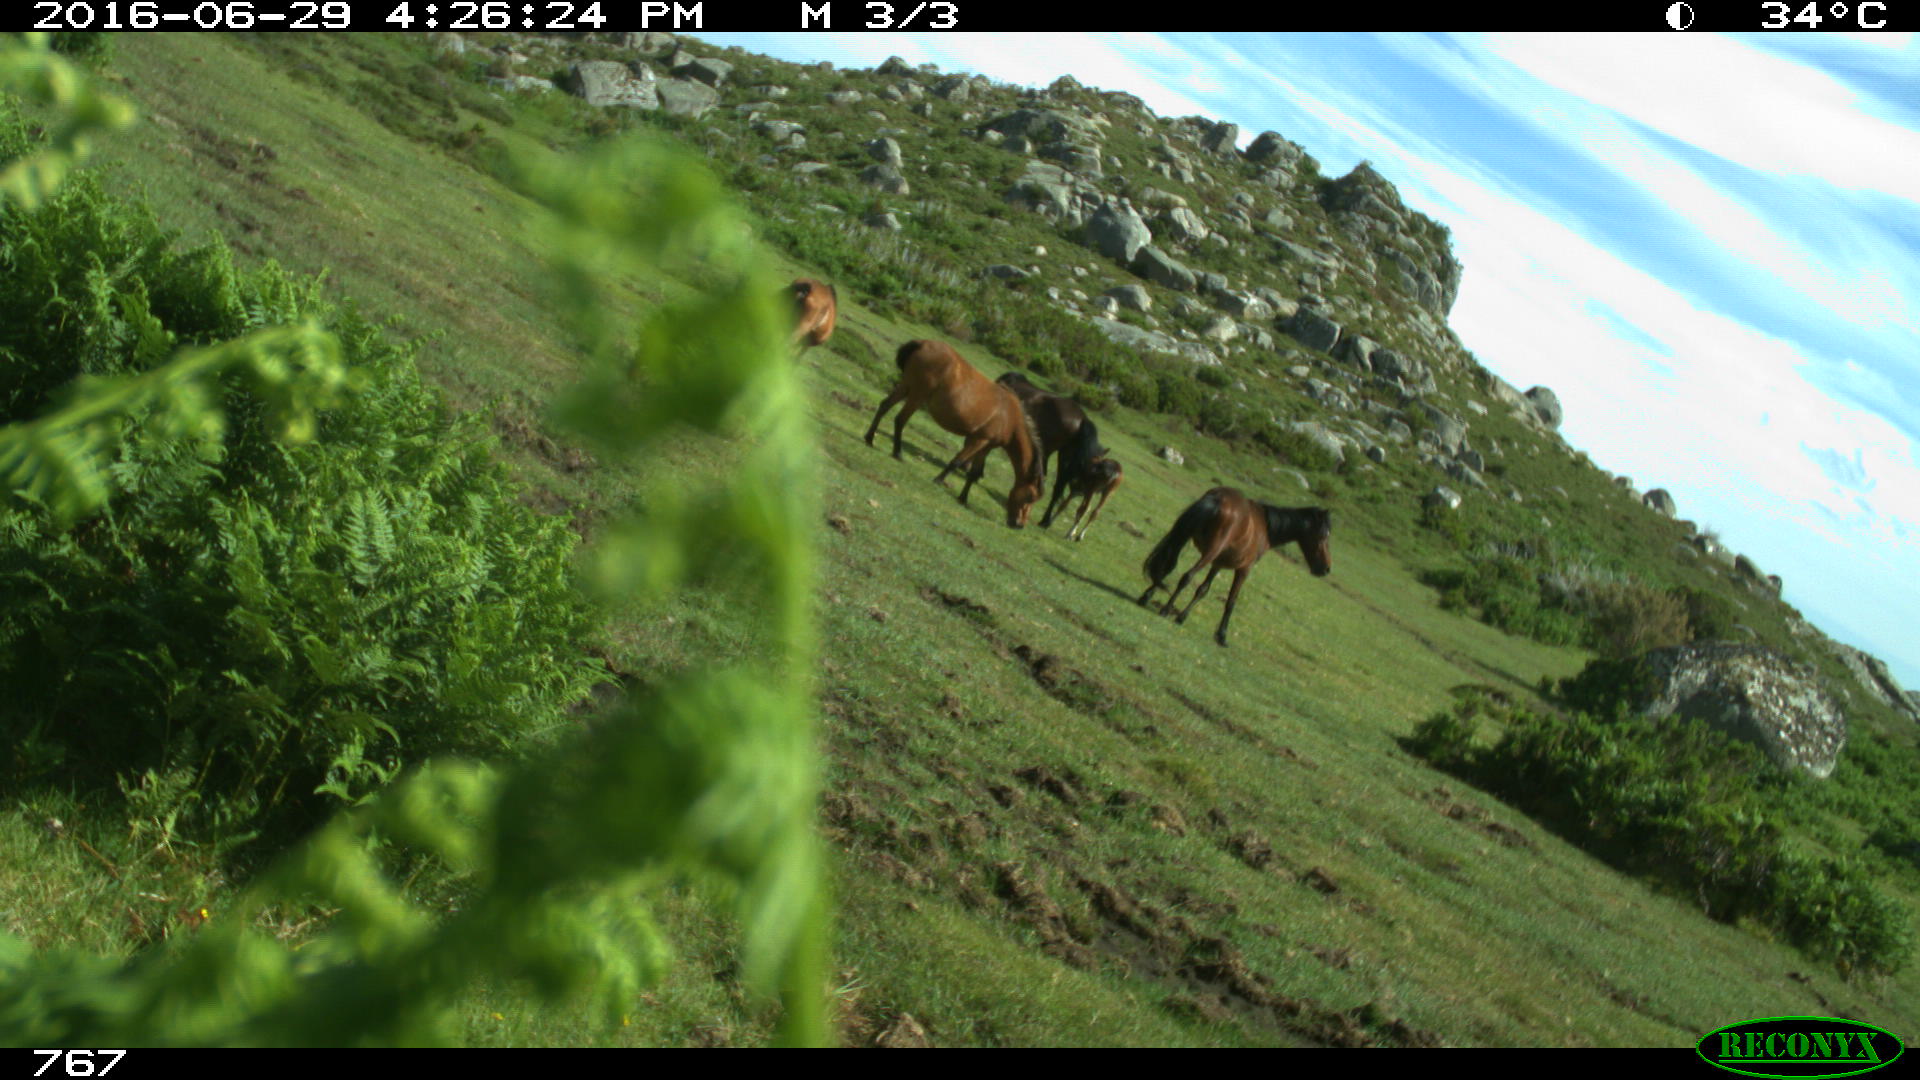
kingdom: Animalia
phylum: Chordata
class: Mammalia
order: Perissodactyla
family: Equidae
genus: Equus
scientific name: Equus caballus
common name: Horse
